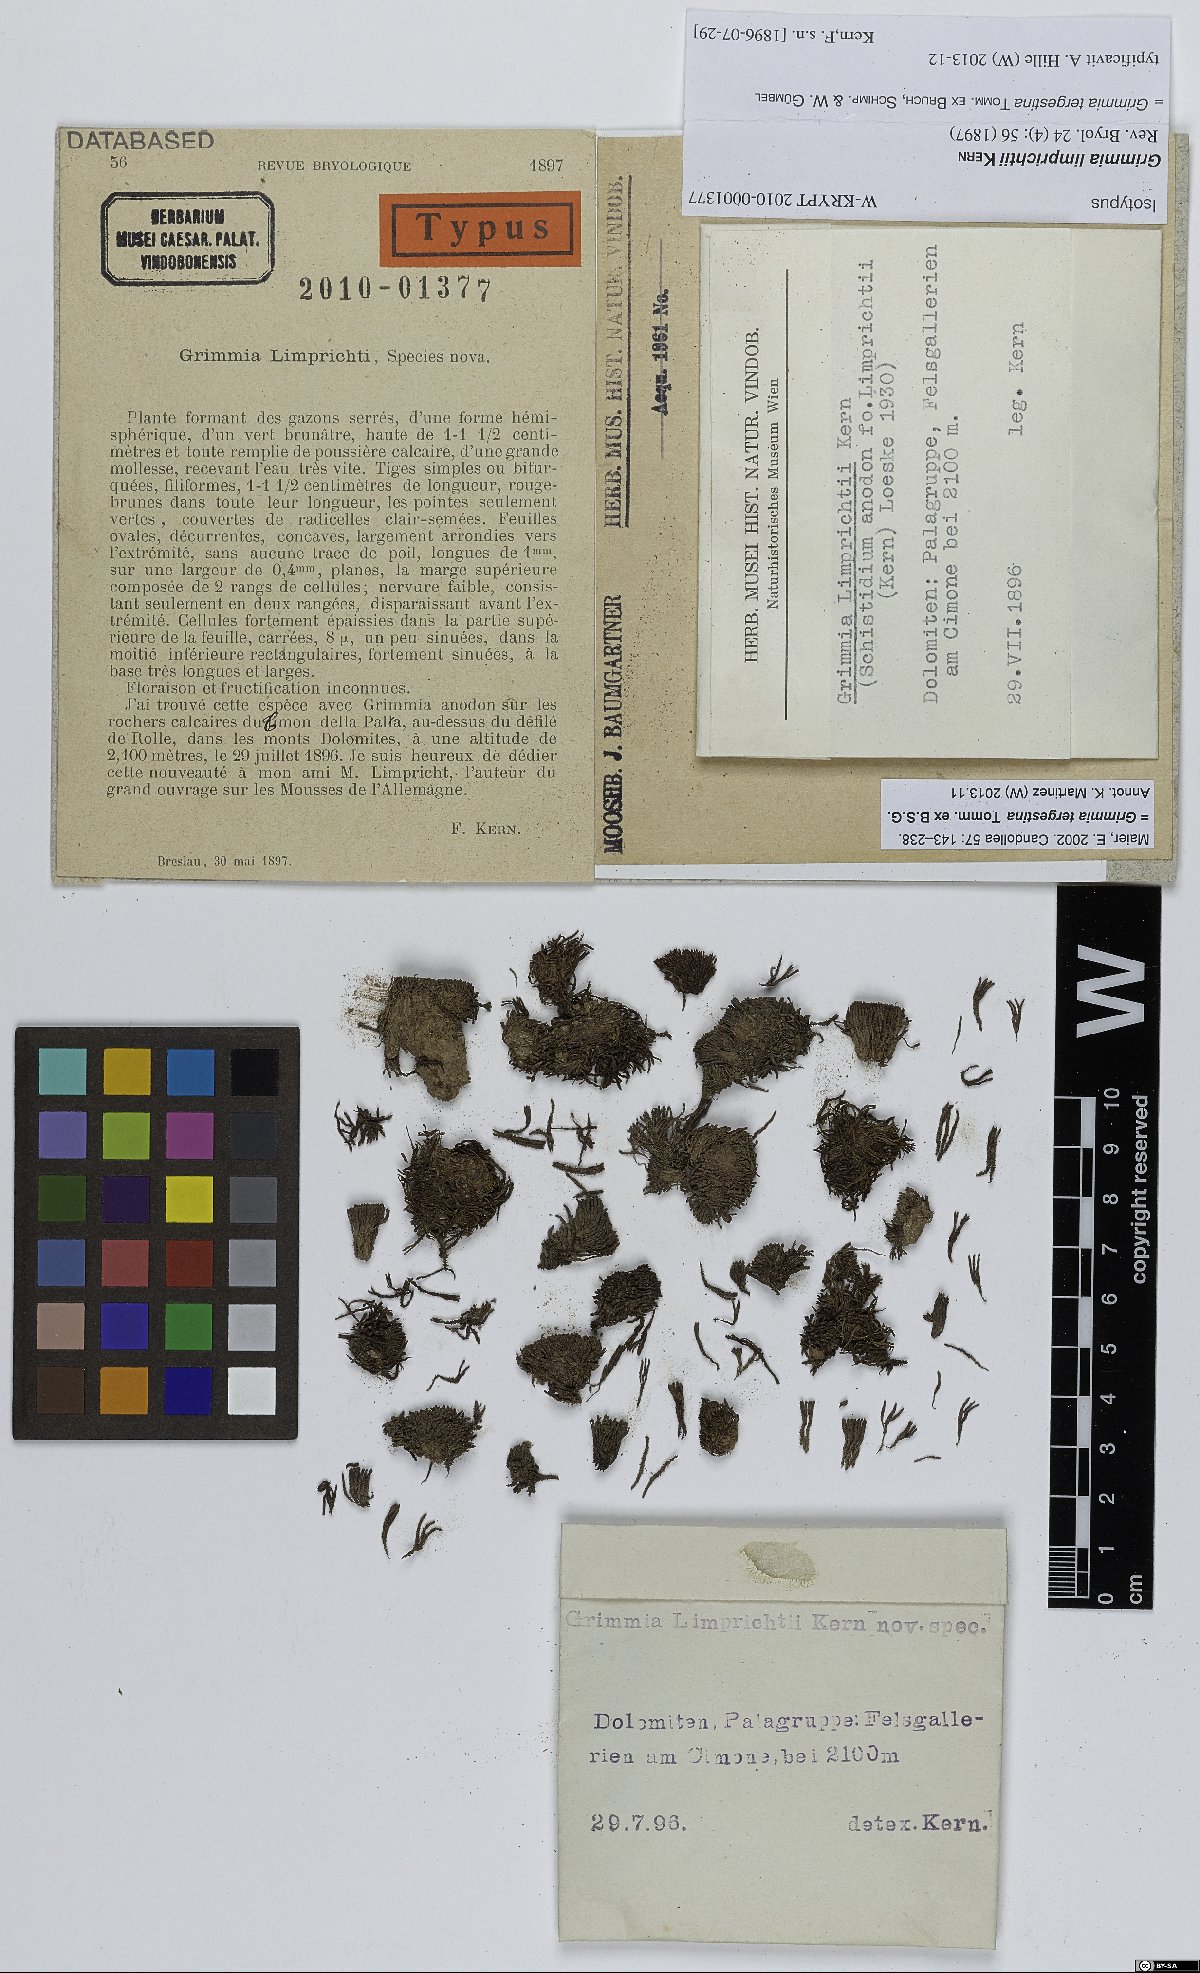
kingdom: Plantae
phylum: Bryophyta
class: Bryopsida
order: Grimmiales
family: Grimmiaceae
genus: Grimmia
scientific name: Grimmia limprichtii
